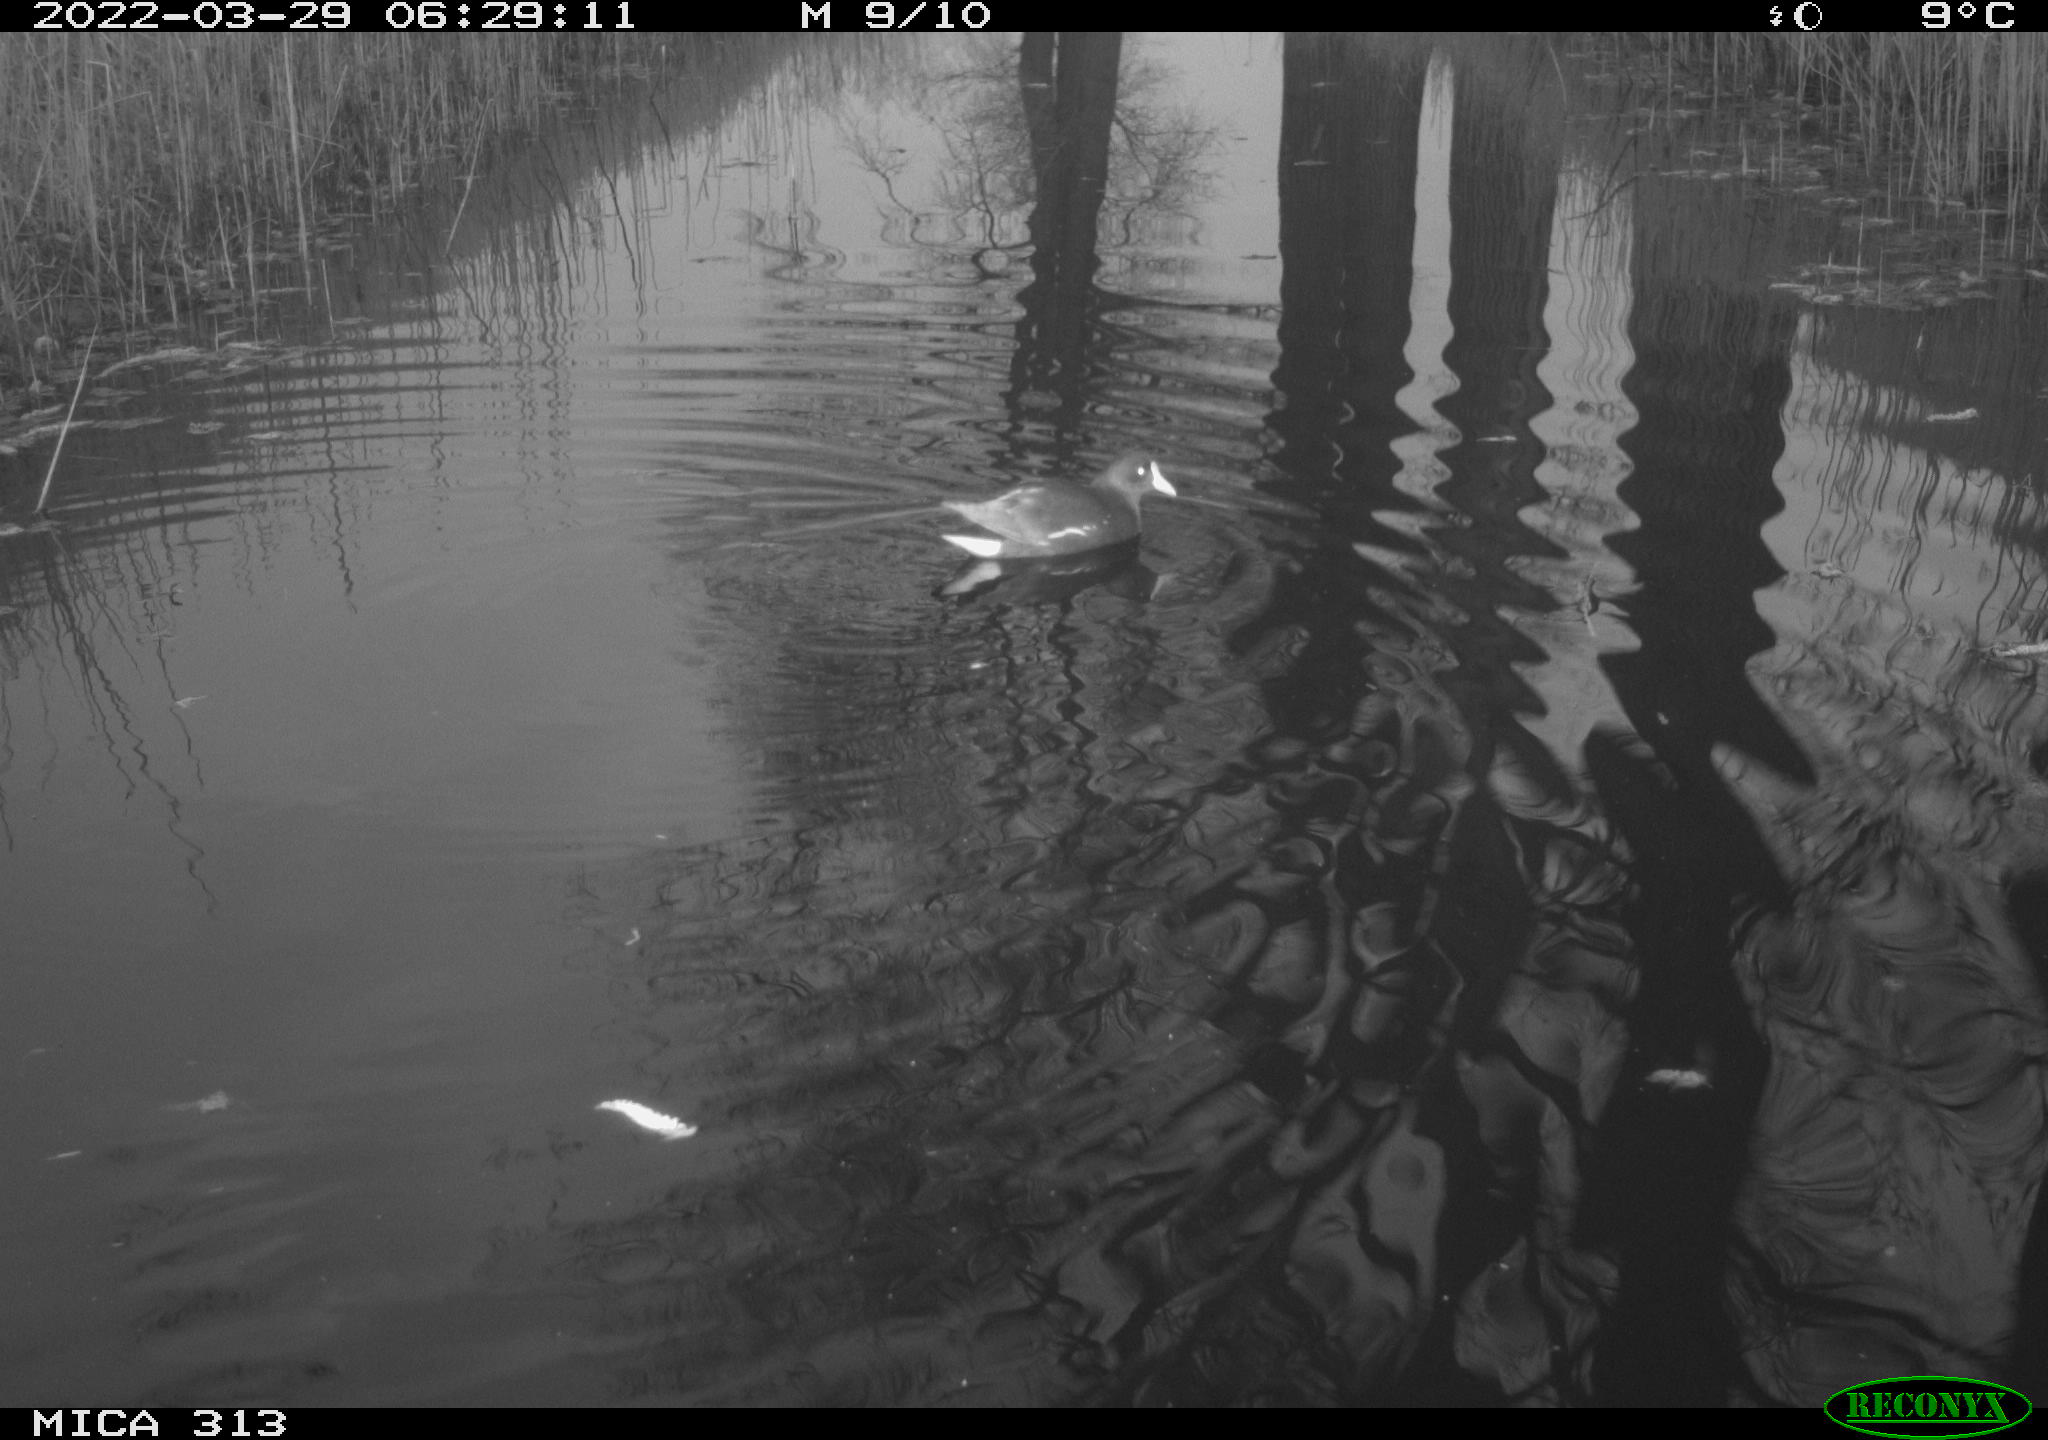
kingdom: Animalia
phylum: Chordata
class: Aves
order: Gruiformes
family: Rallidae
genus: Gallinula
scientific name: Gallinula chloropus
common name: Common moorhen
